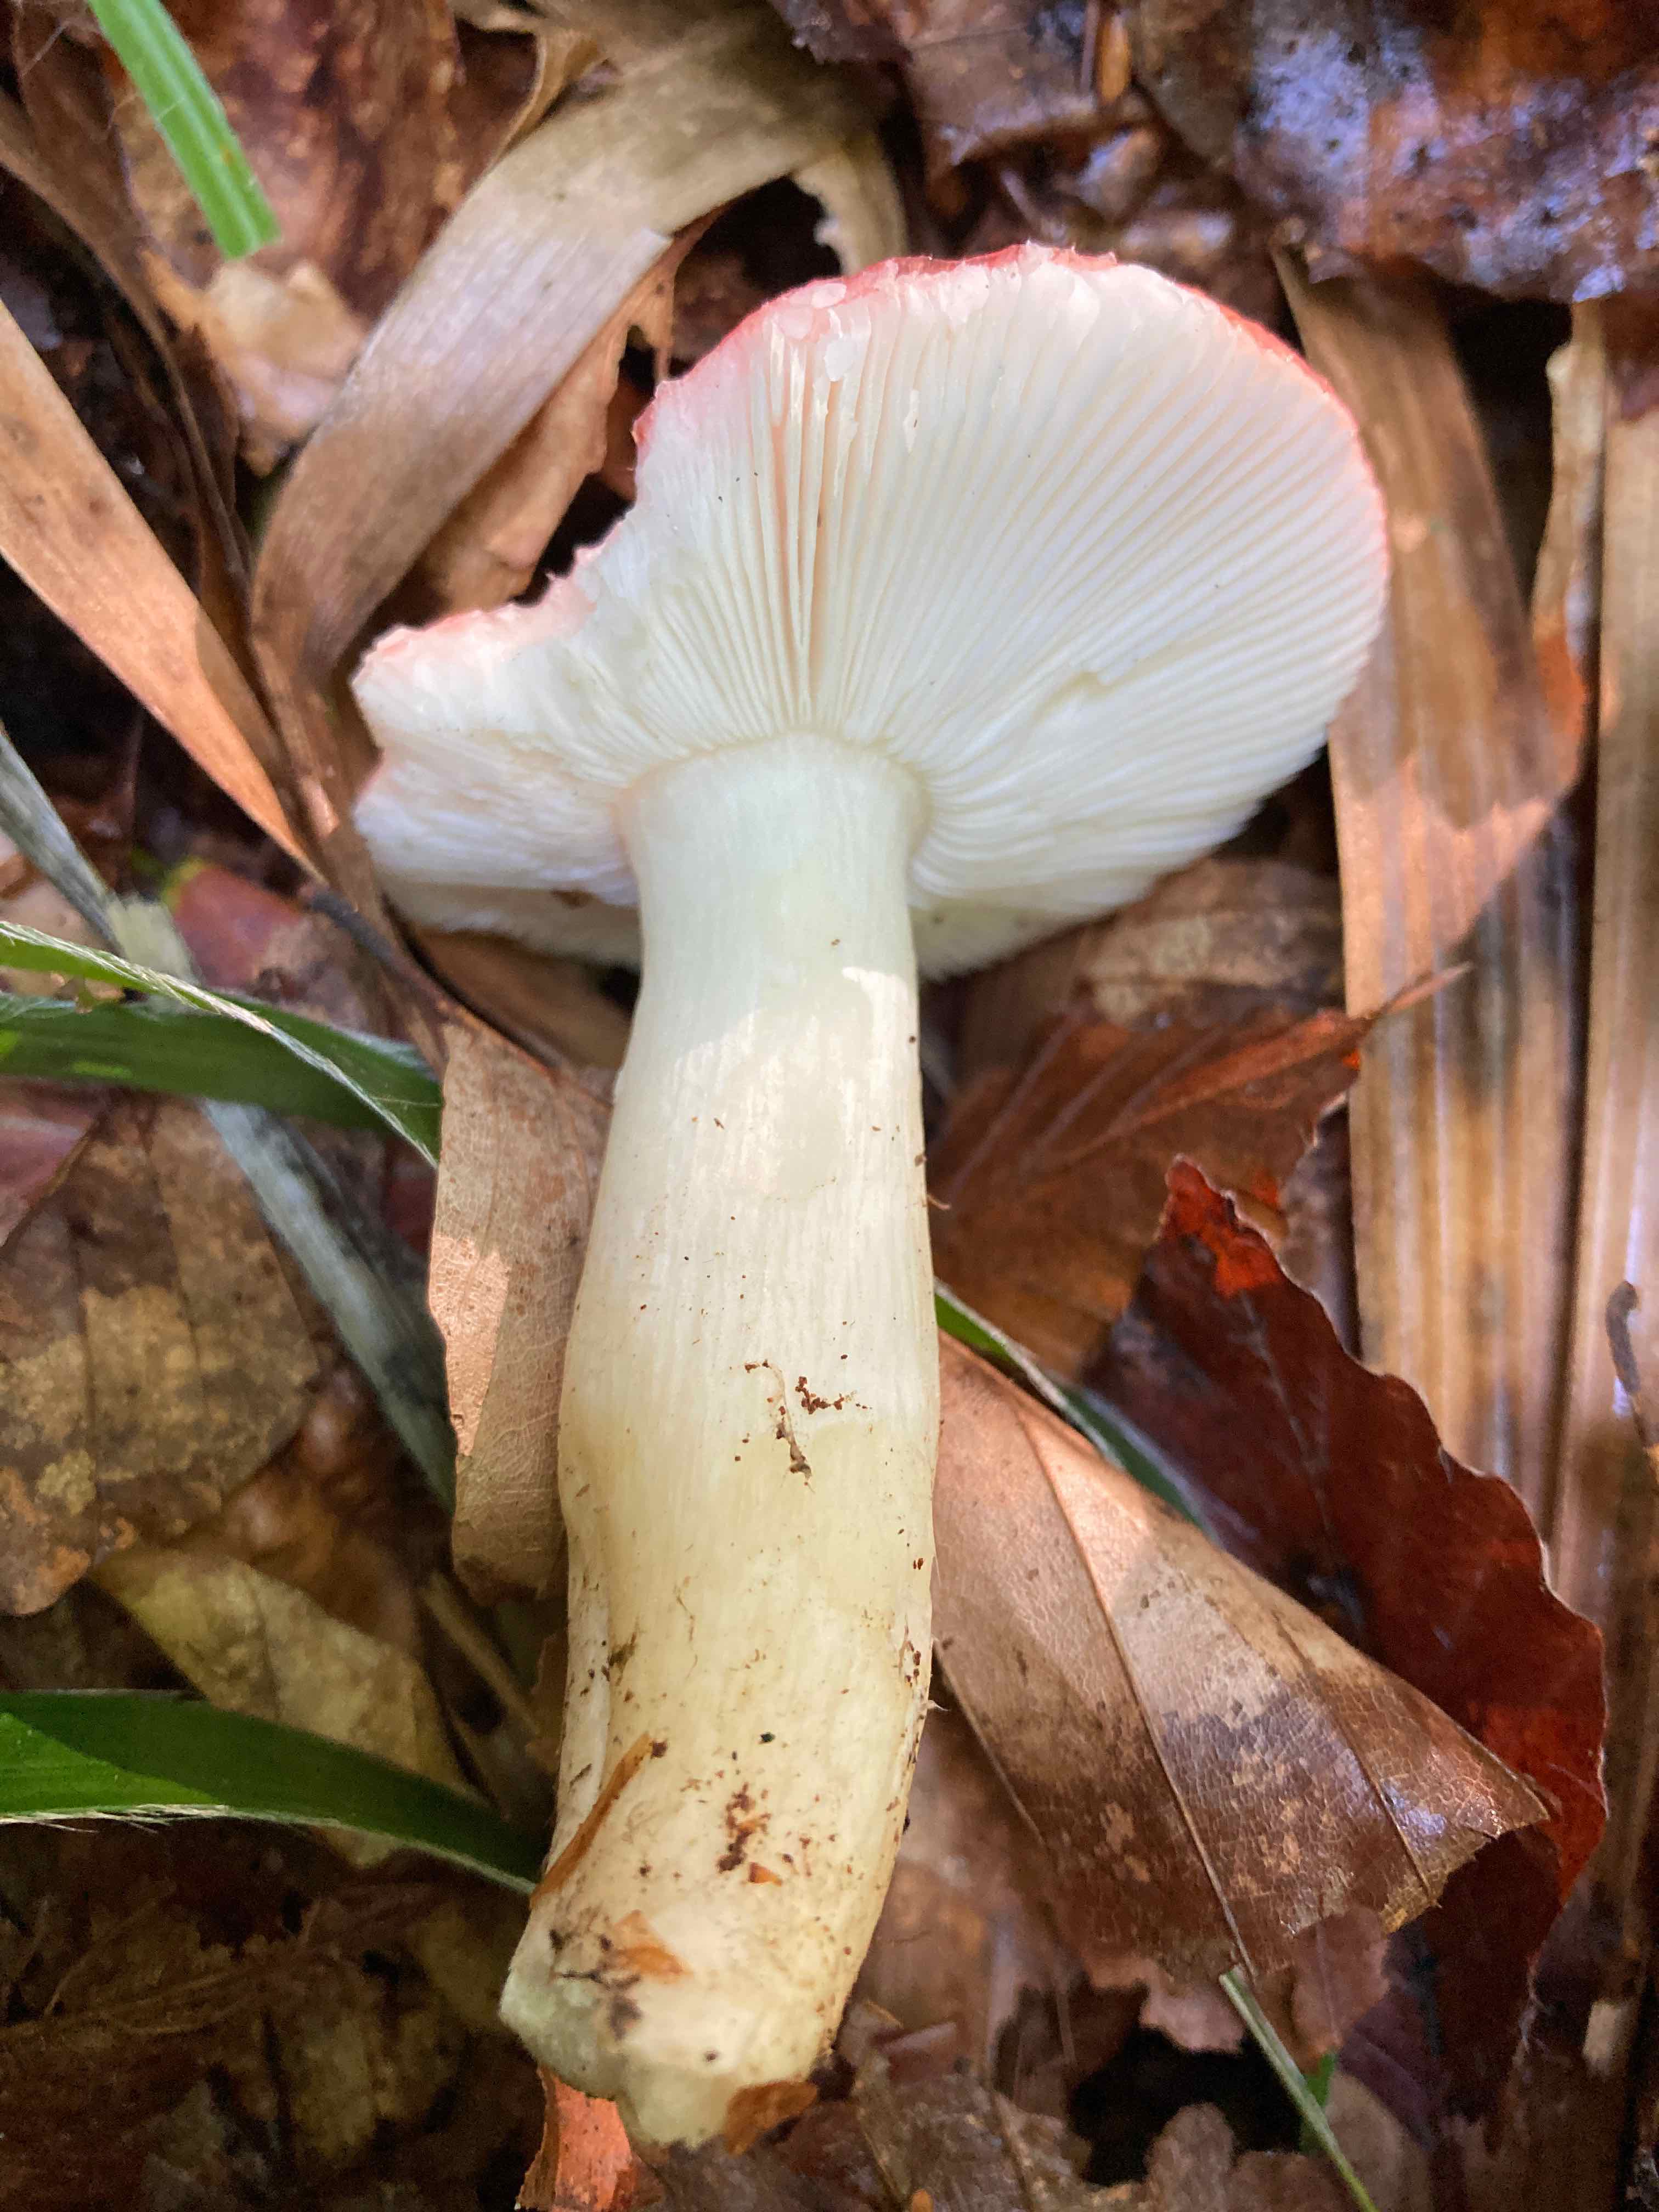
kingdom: Fungi
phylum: Basidiomycota
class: Agaricomycetes
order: Russulales
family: Russulaceae
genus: Russula
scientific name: Russula silvestris
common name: mellemstor gift-skørhat
